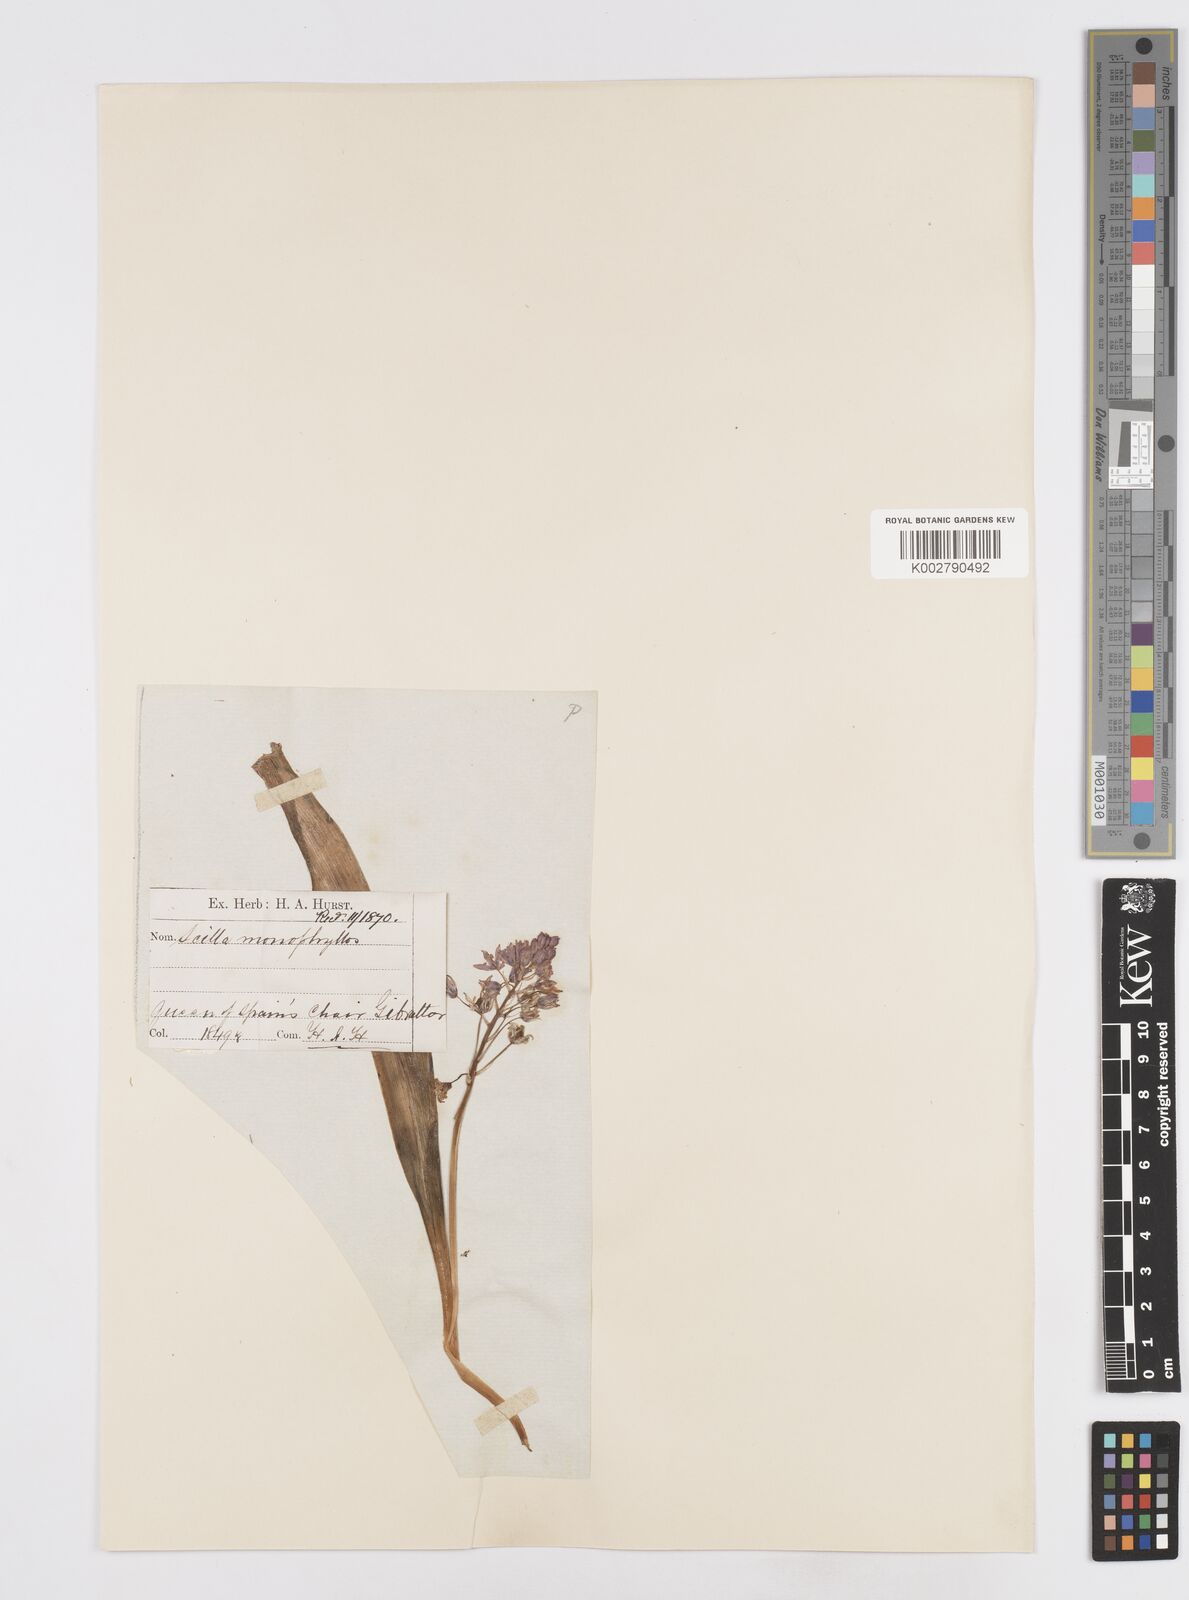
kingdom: Plantae
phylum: Tracheophyta
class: Liliopsida
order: Asparagales
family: Asparagaceae
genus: Scilla
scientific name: Scilla monophyllos
